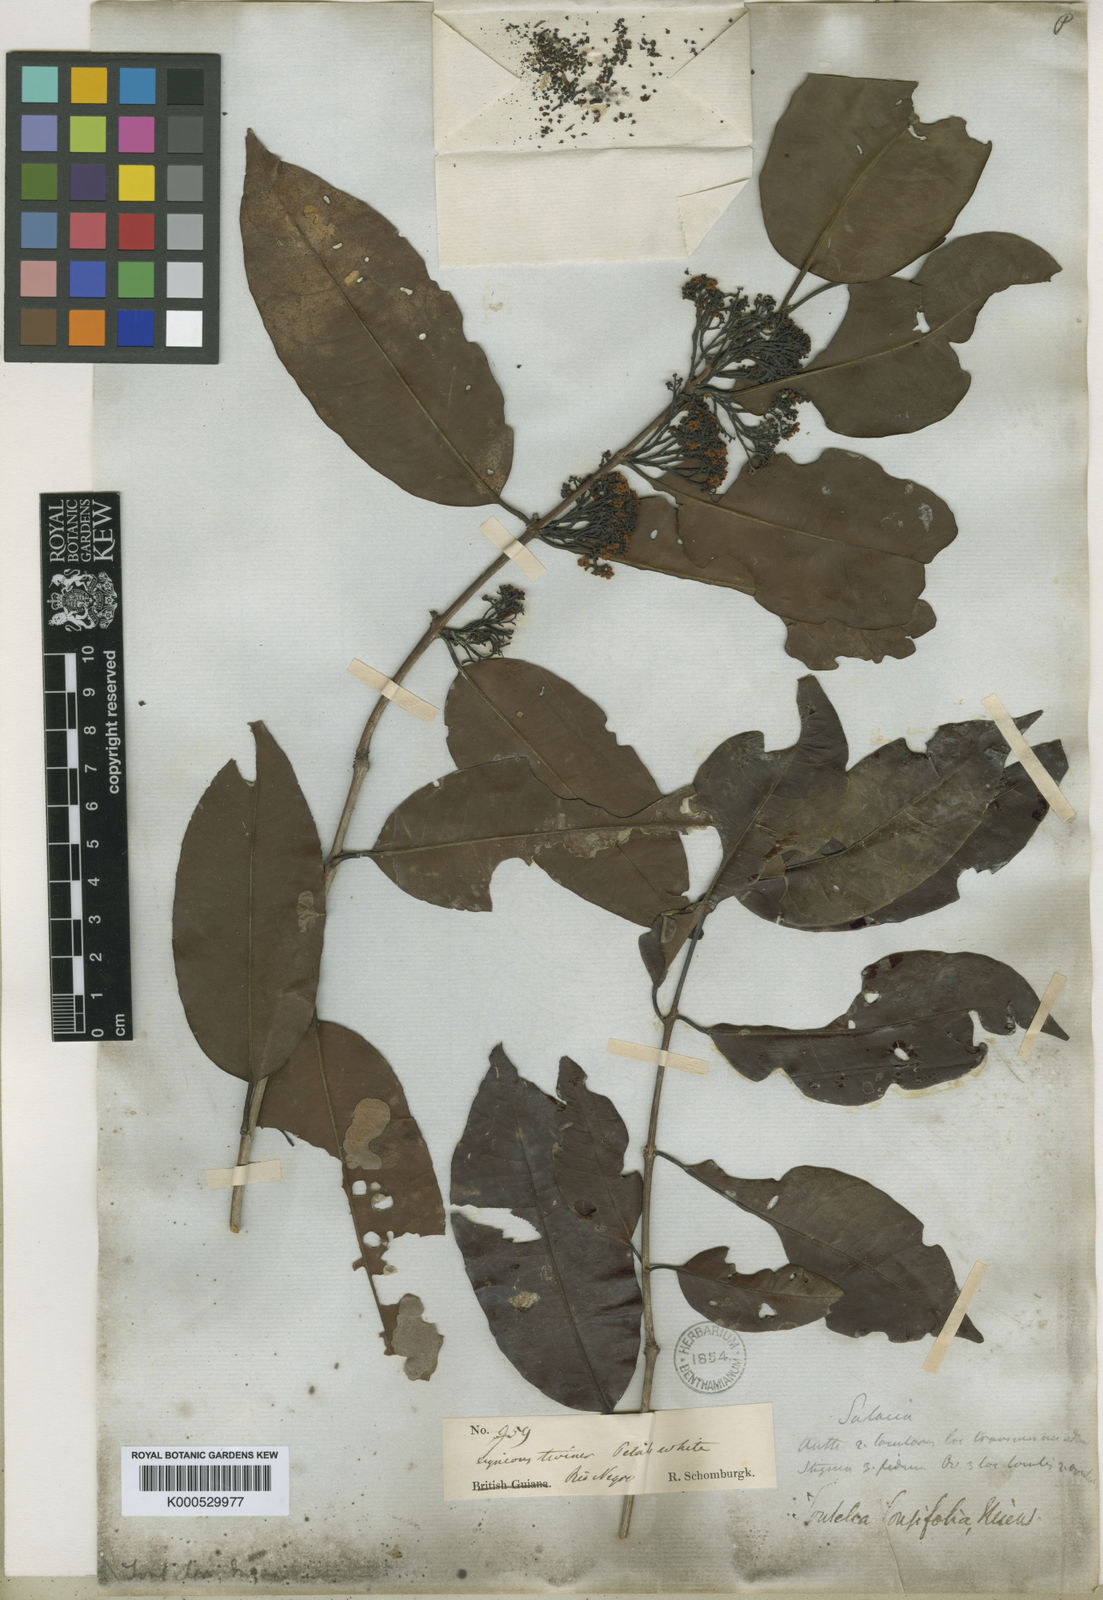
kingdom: Plantae
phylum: Tracheophyta
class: Magnoliopsida
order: Celastrales
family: Celastraceae
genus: Tontelea
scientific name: Tontelea attenuata
